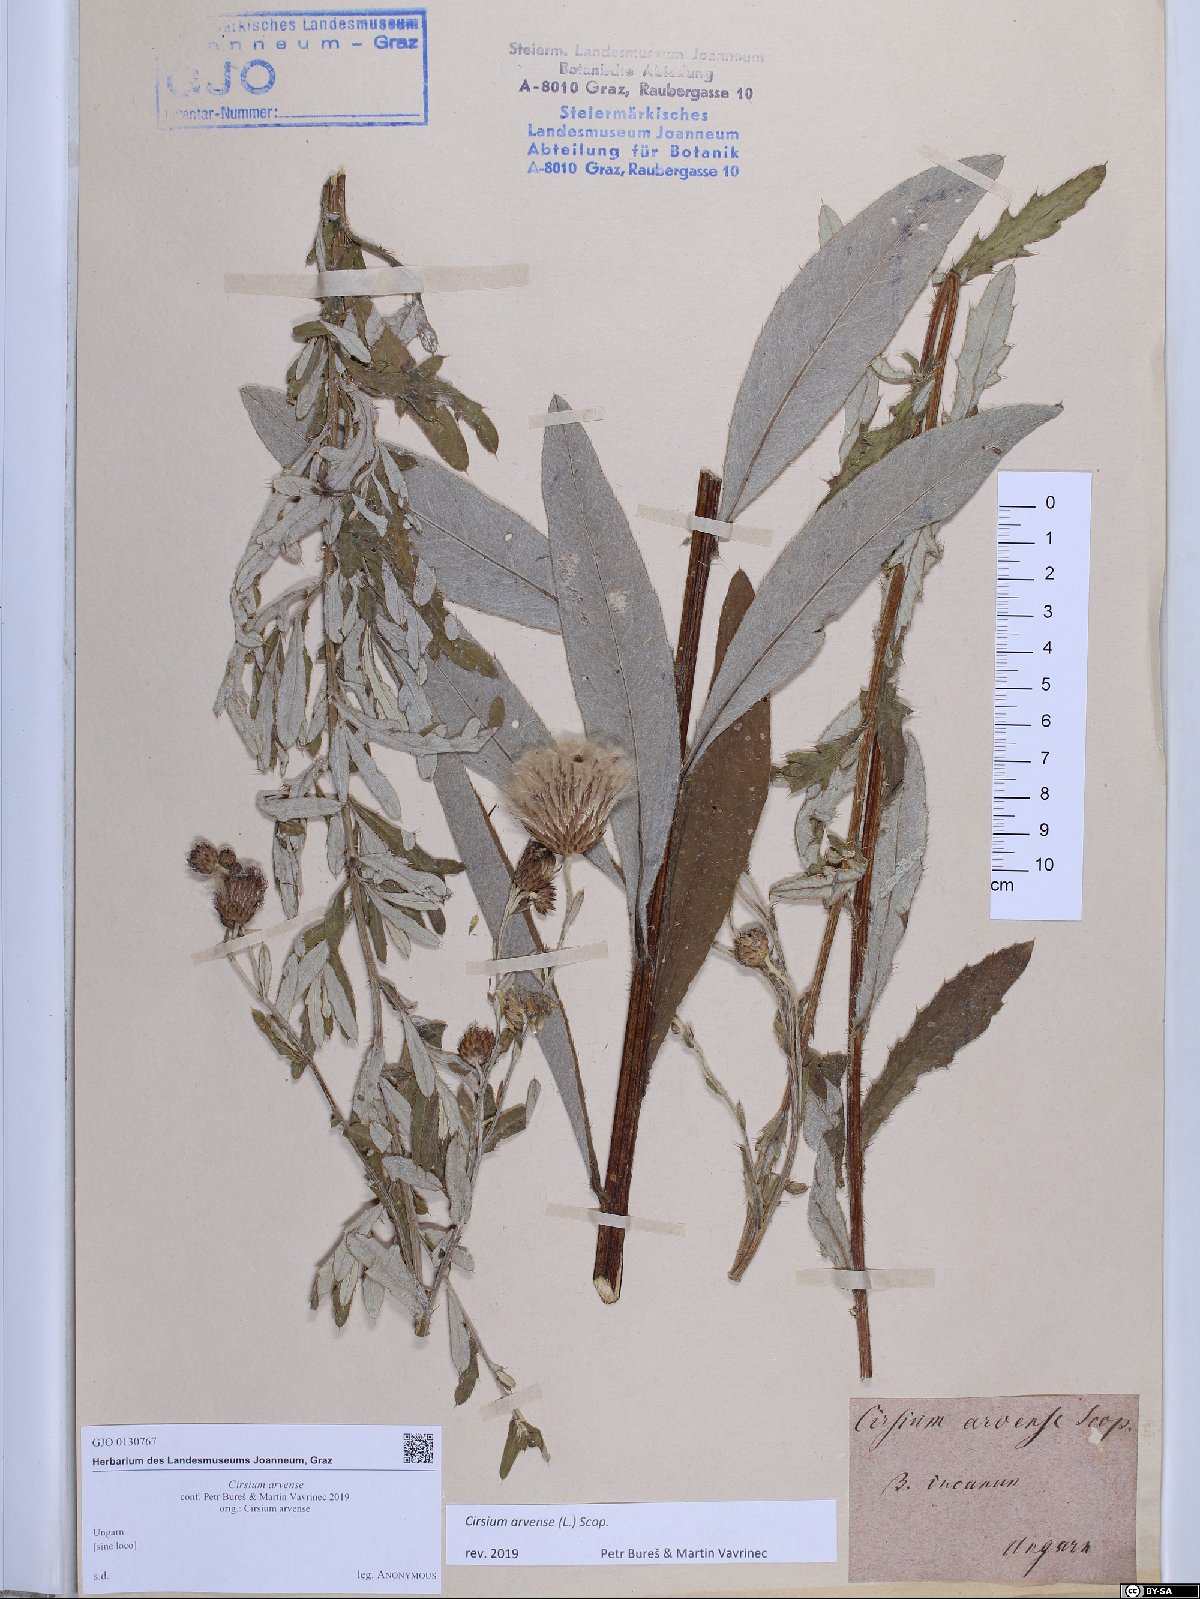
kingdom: Plantae
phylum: Tracheophyta
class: Magnoliopsida
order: Asterales
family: Asteraceae
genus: Cirsium
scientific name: Cirsium arvense
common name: Creeping thistle
